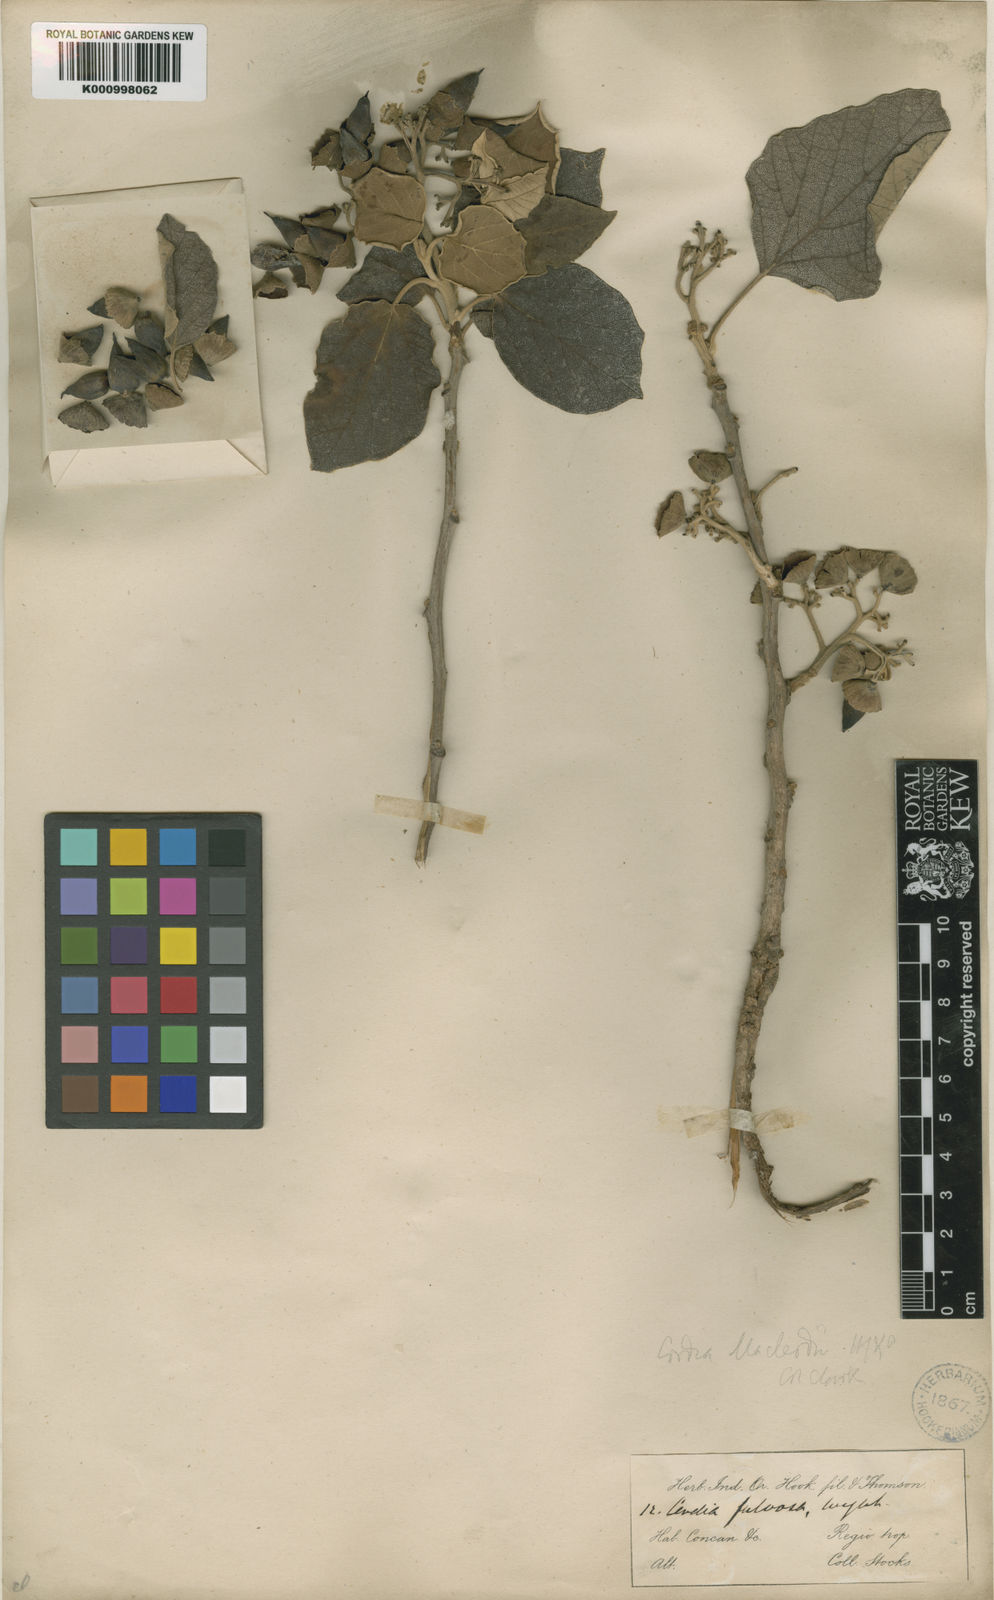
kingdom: Plantae
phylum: Tracheophyta
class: Magnoliopsida
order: Boraginales
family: Cordiaceae
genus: Cordia
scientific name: Cordia macleodii
